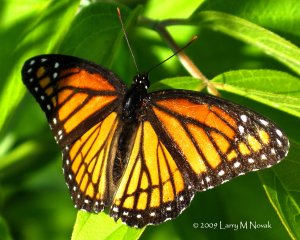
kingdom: Animalia
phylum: Arthropoda
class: Insecta
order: Lepidoptera
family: Nymphalidae
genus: Limenitis
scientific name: Limenitis archippus
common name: Viceroy
